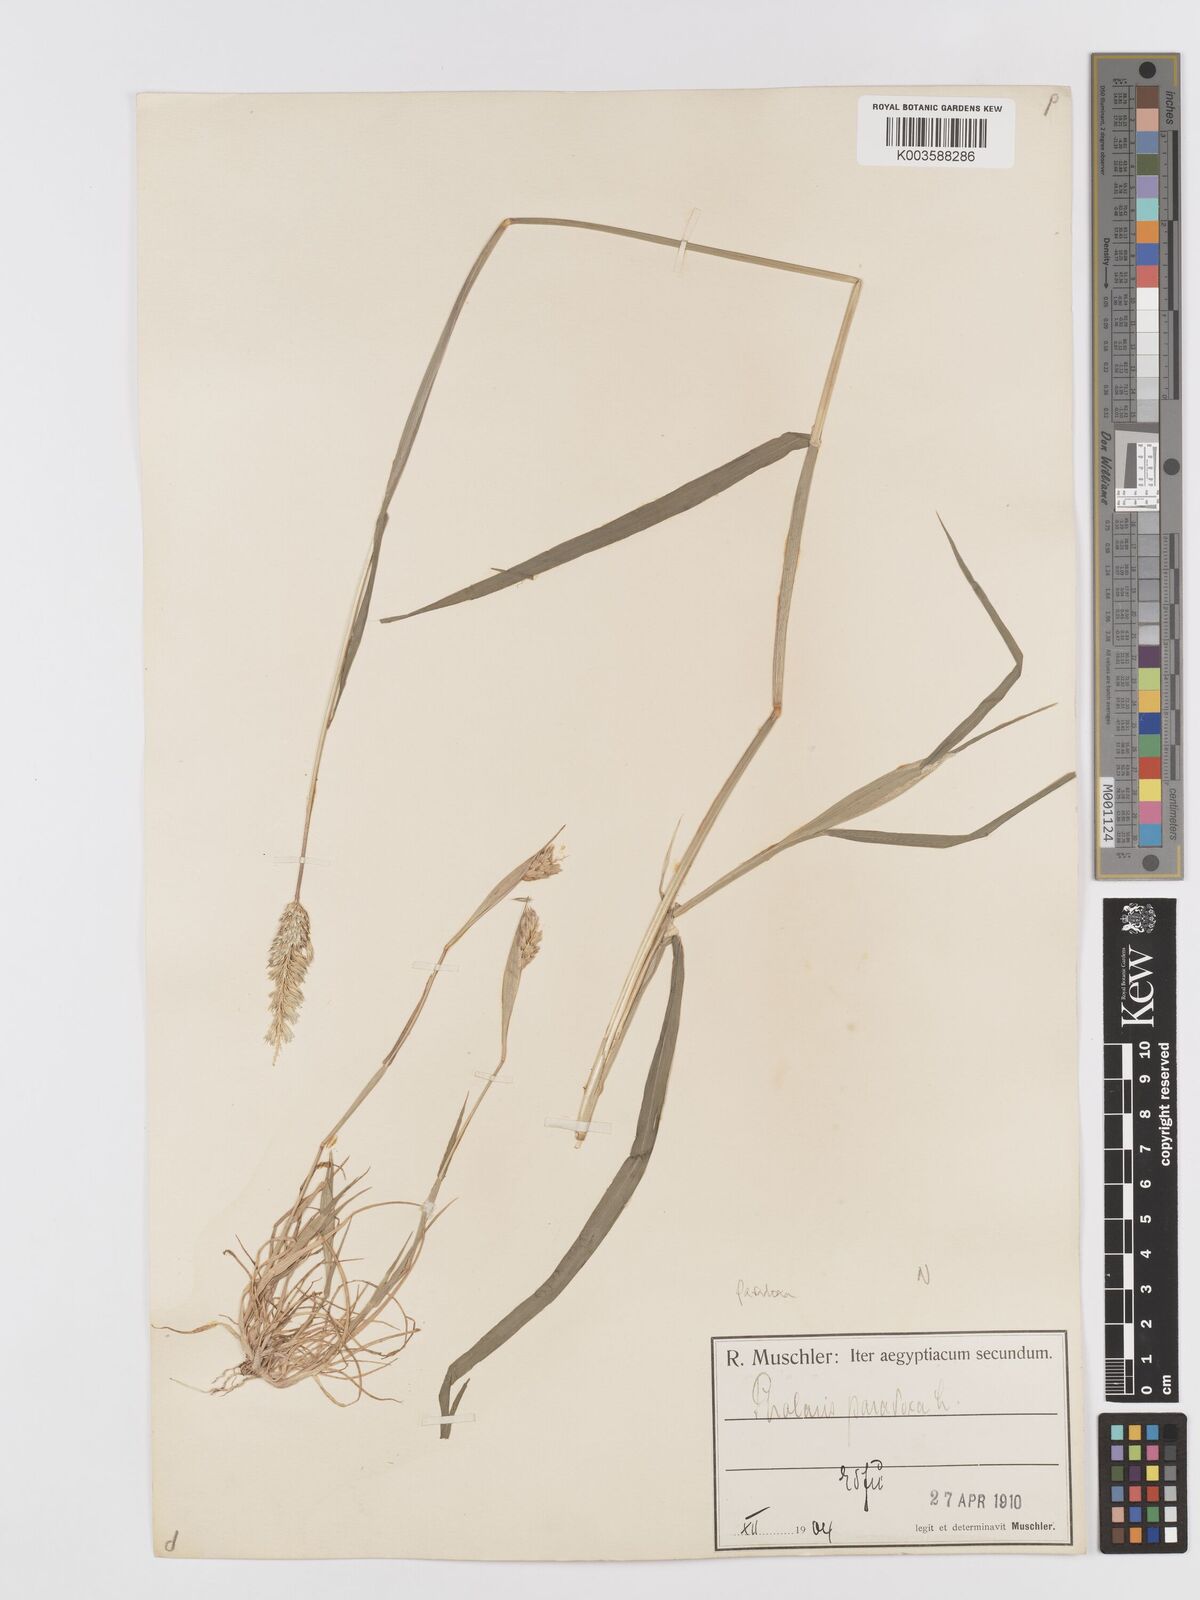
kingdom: Plantae
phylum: Tracheophyta
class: Liliopsida
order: Poales
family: Poaceae
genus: Phalaris
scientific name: Phalaris paradoxa
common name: Awned canary-grass
